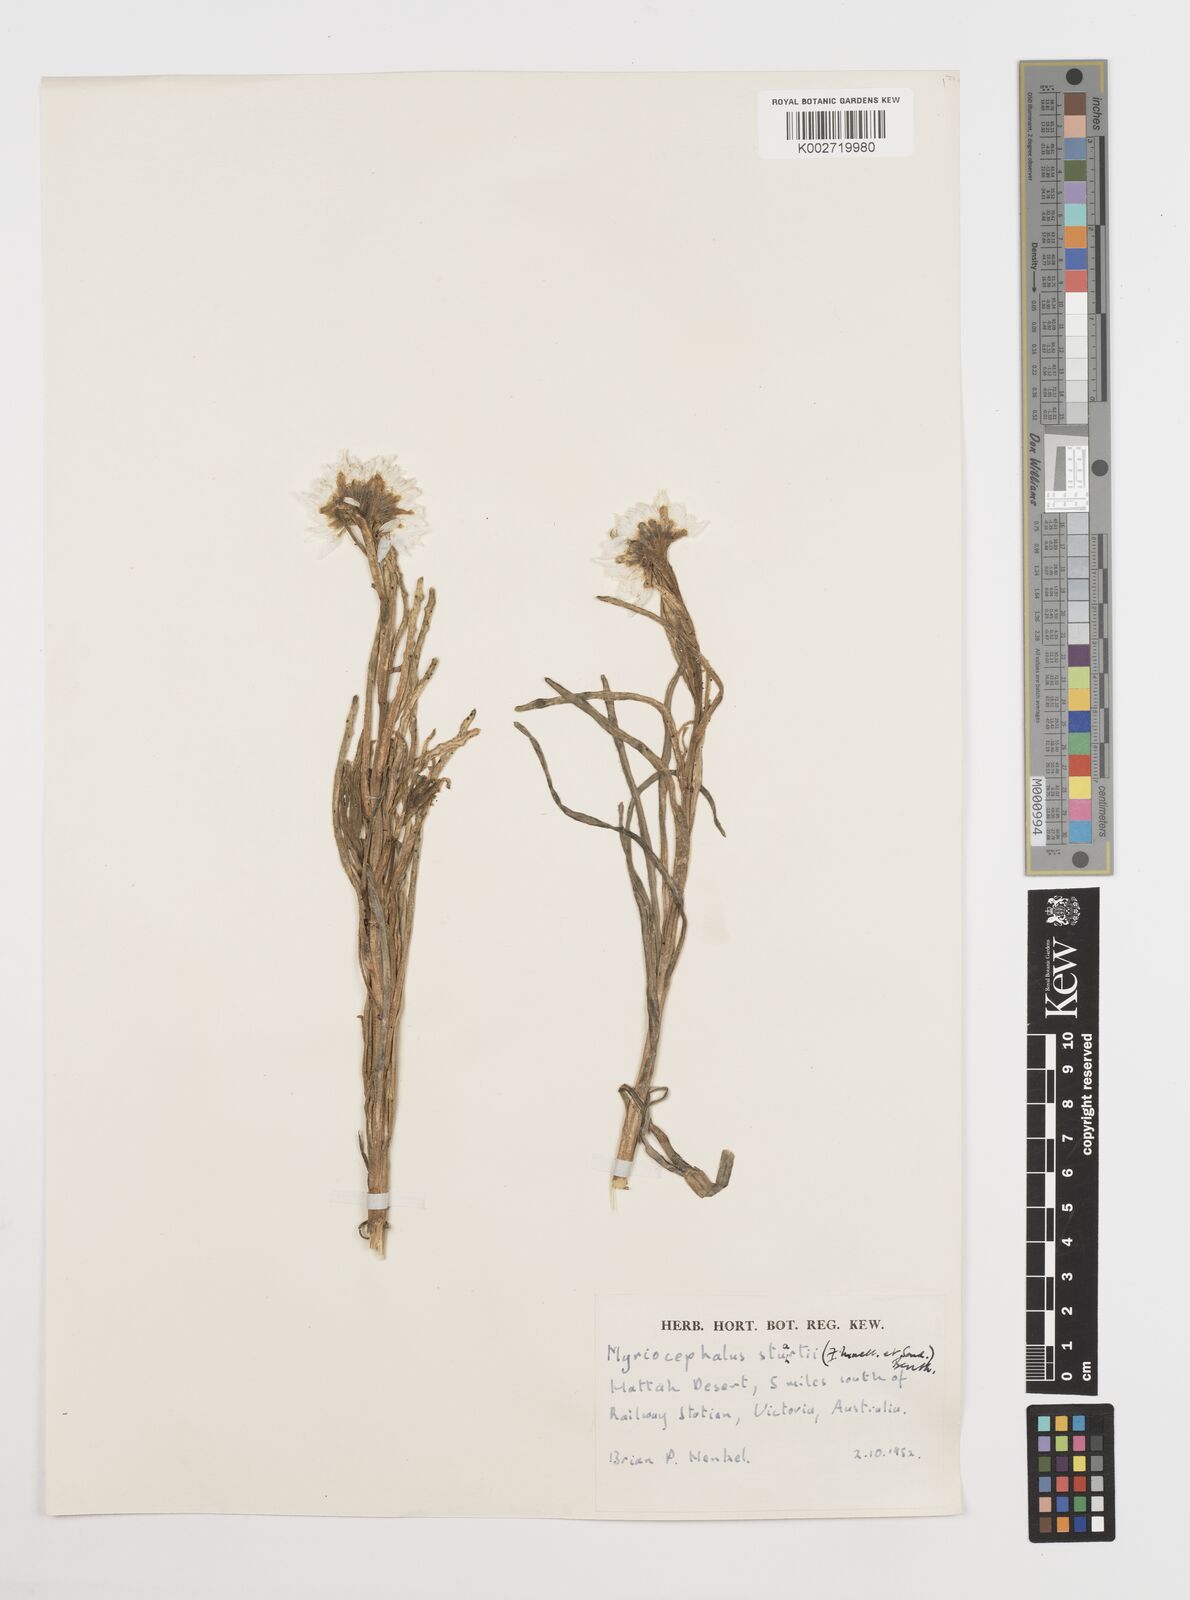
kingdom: Plantae
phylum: Tracheophyta
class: Magnoliopsida
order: Asterales
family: Asteraceae
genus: Polycalymma
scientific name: Polycalymma stuartii
